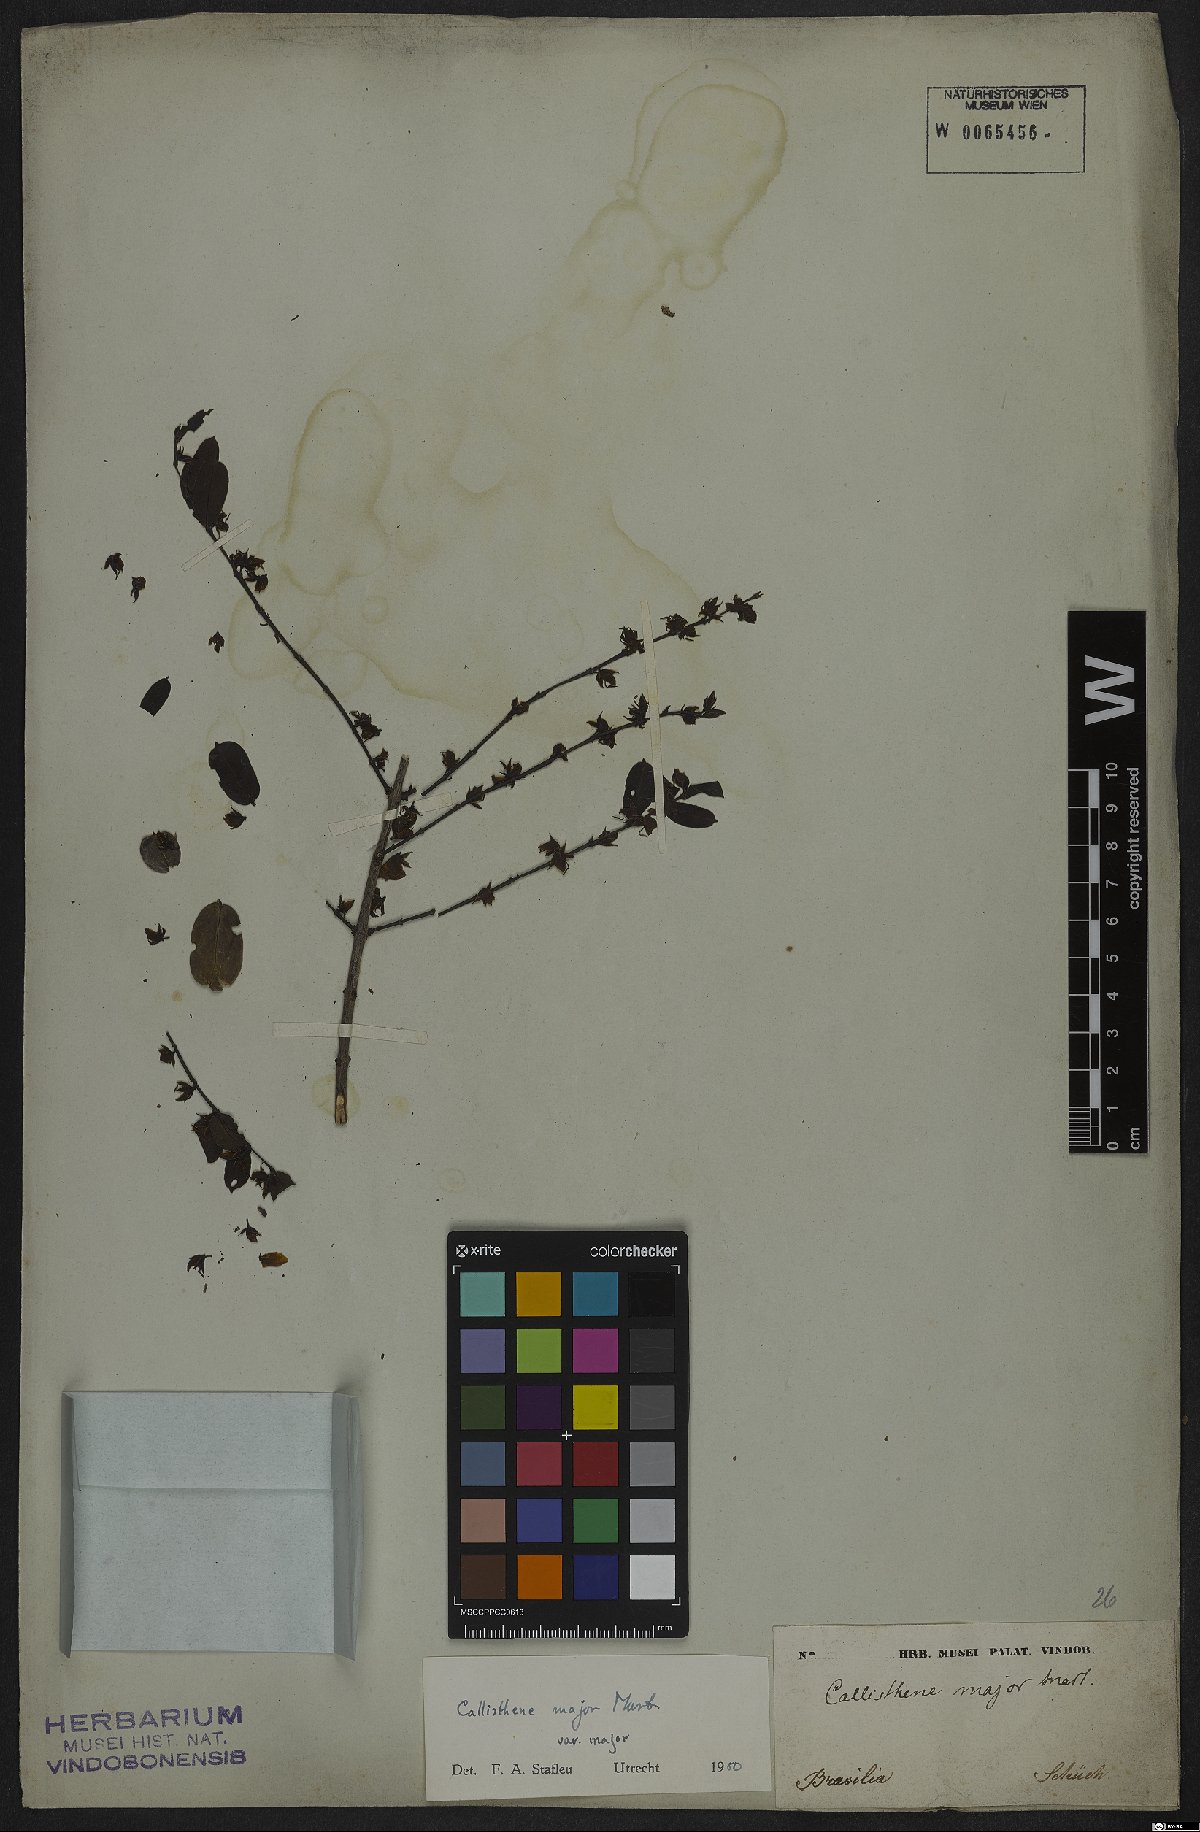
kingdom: Plantae
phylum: Tracheophyta
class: Magnoliopsida
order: Myrtales
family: Vochysiaceae
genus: Callisthene
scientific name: Callisthene major
